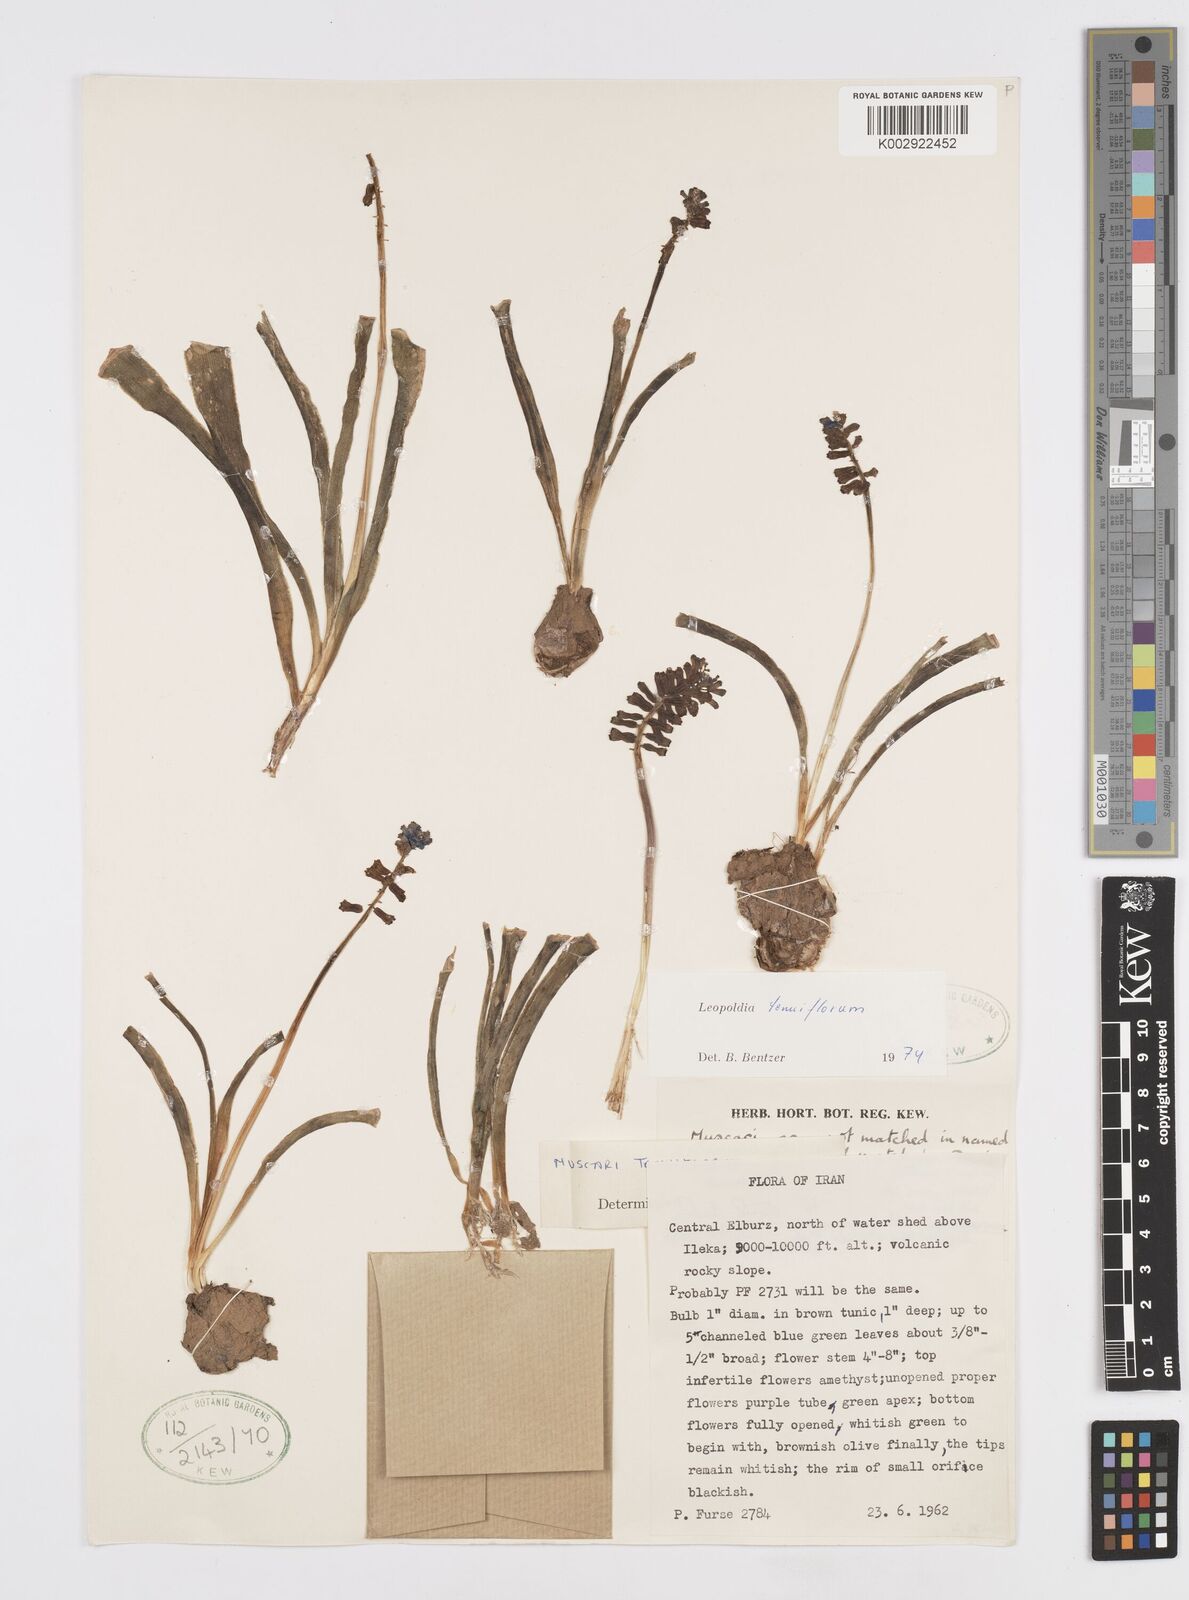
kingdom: Plantae
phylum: Tracheophyta
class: Liliopsida
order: Asparagales
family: Asparagaceae
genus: Muscari
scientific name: Muscari tenuiflorum
